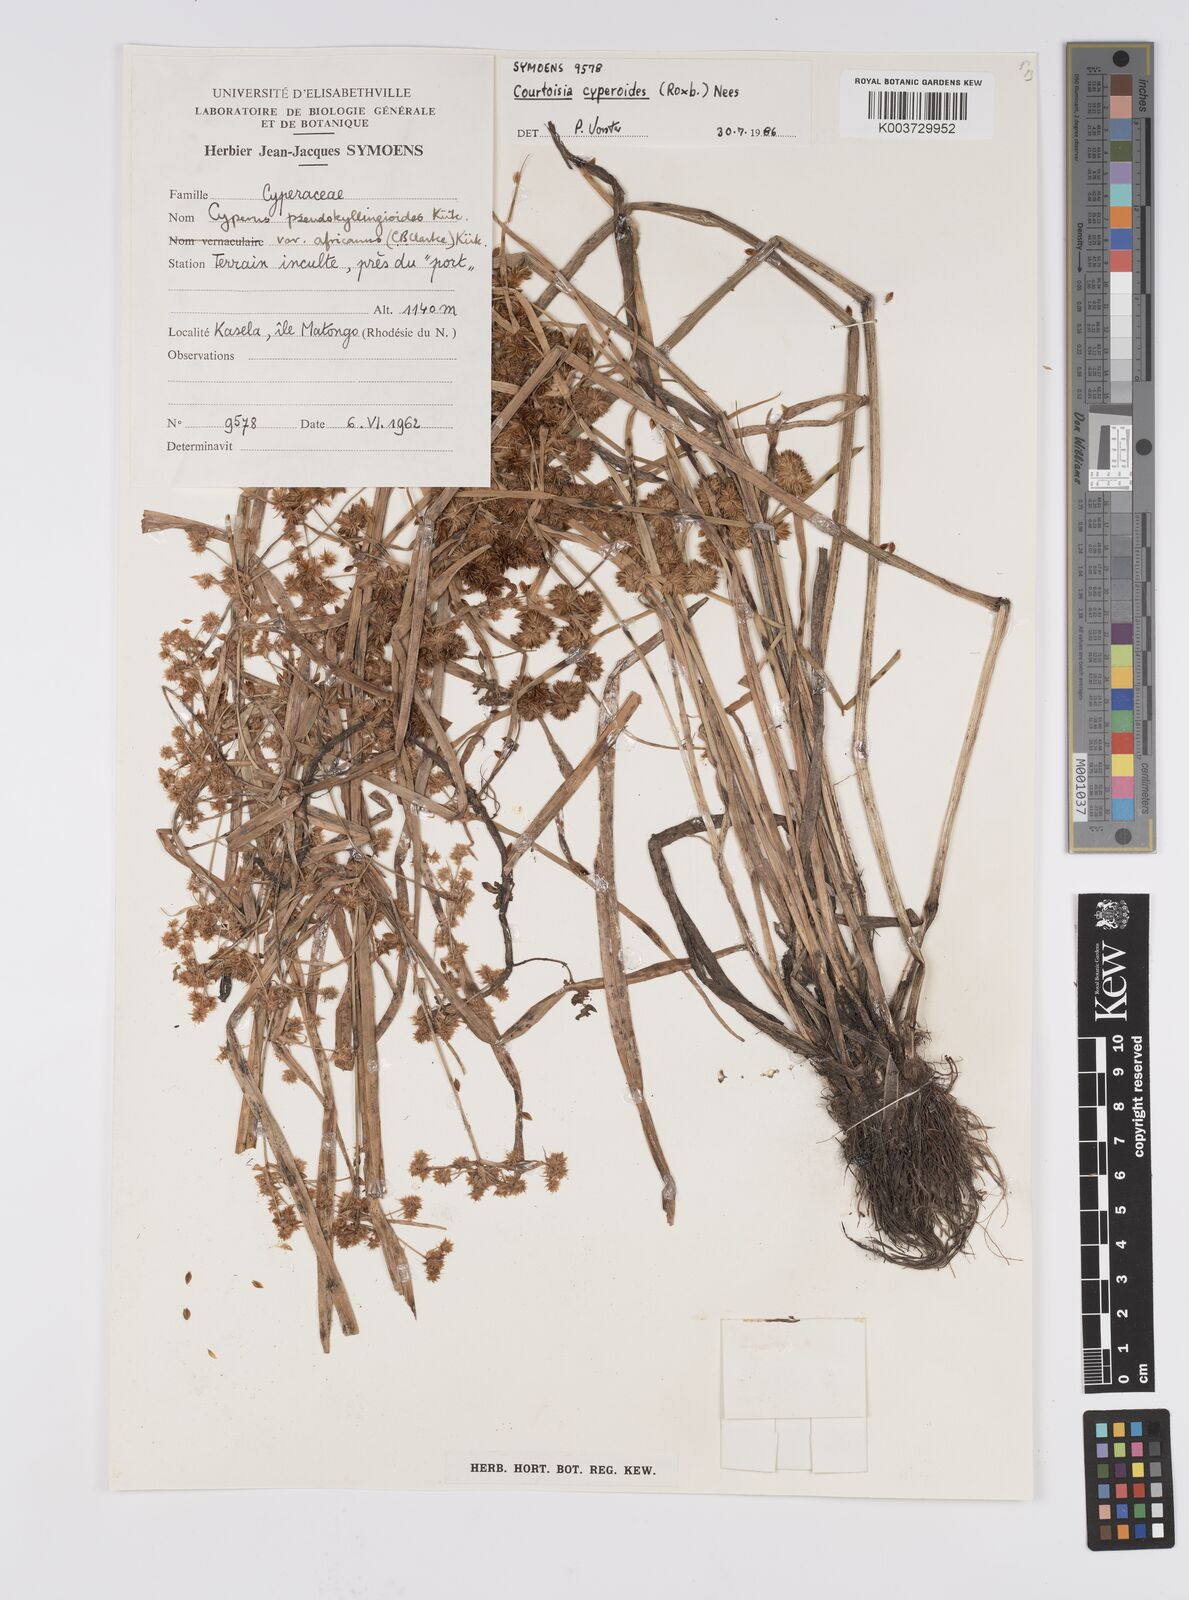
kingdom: Plantae
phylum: Tracheophyta
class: Liliopsida
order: Poales
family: Cyperaceae
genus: Cyperus
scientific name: Cyperus cyperoides
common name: Pacific island flat sedge
